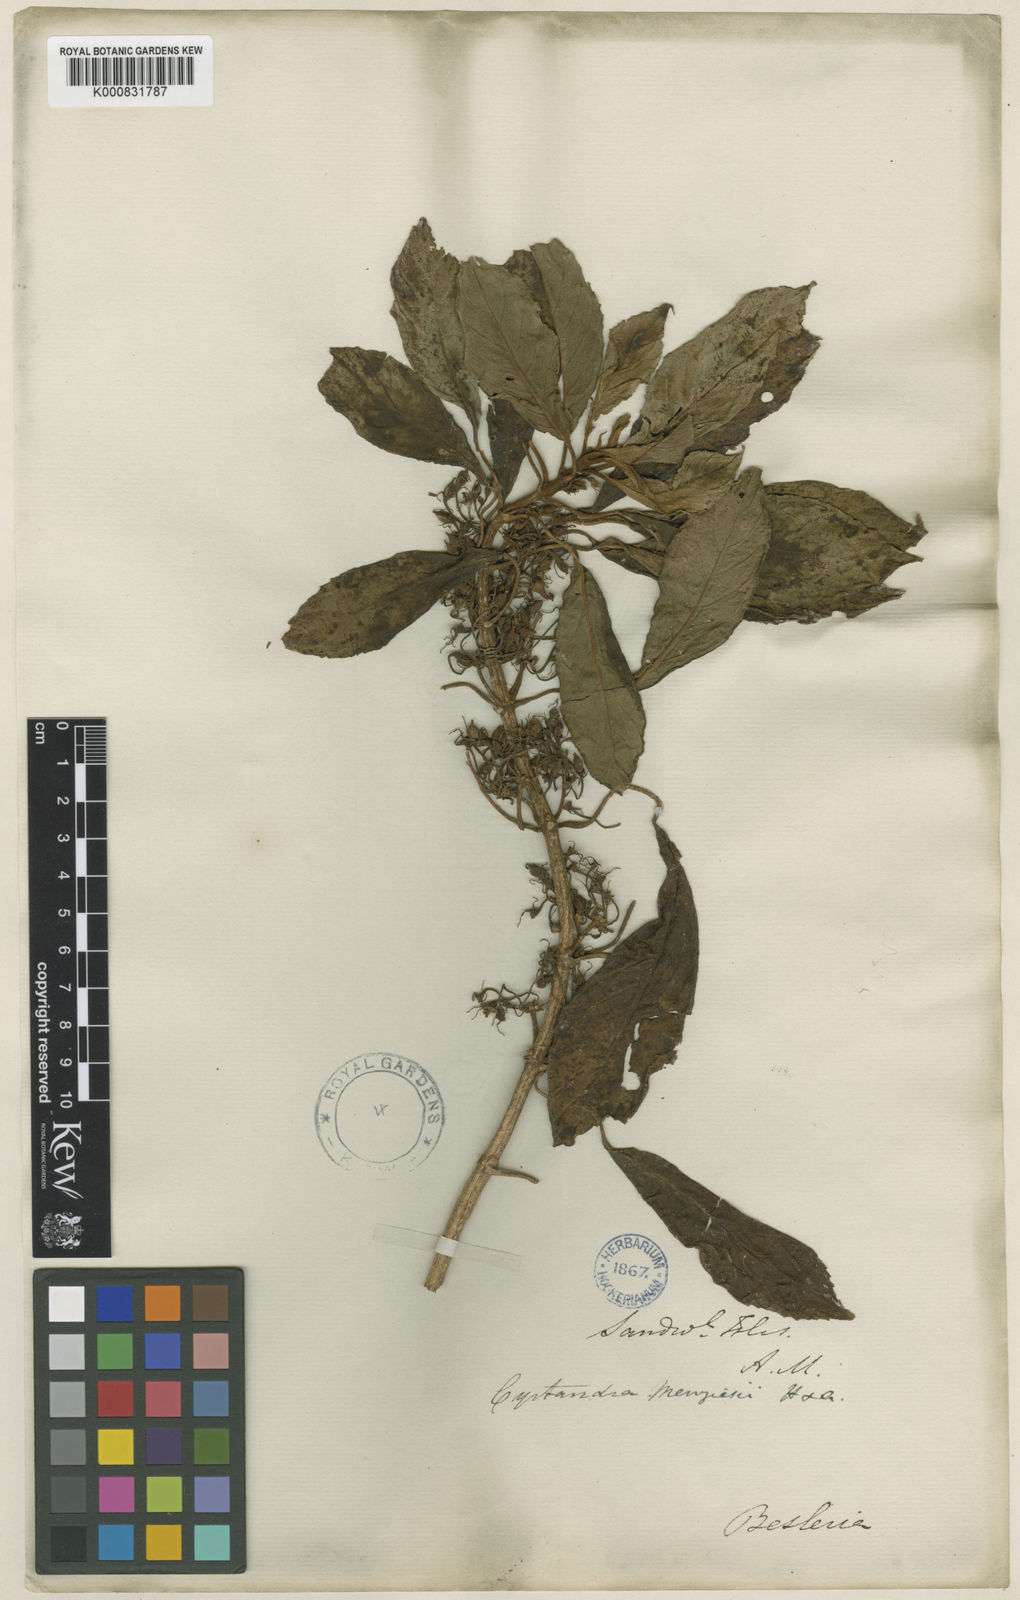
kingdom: Plantae
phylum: Tracheophyta
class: Magnoliopsida
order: Lamiales
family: Gesneriaceae
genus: Cyrtandra
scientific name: Cyrtandra menziesii
